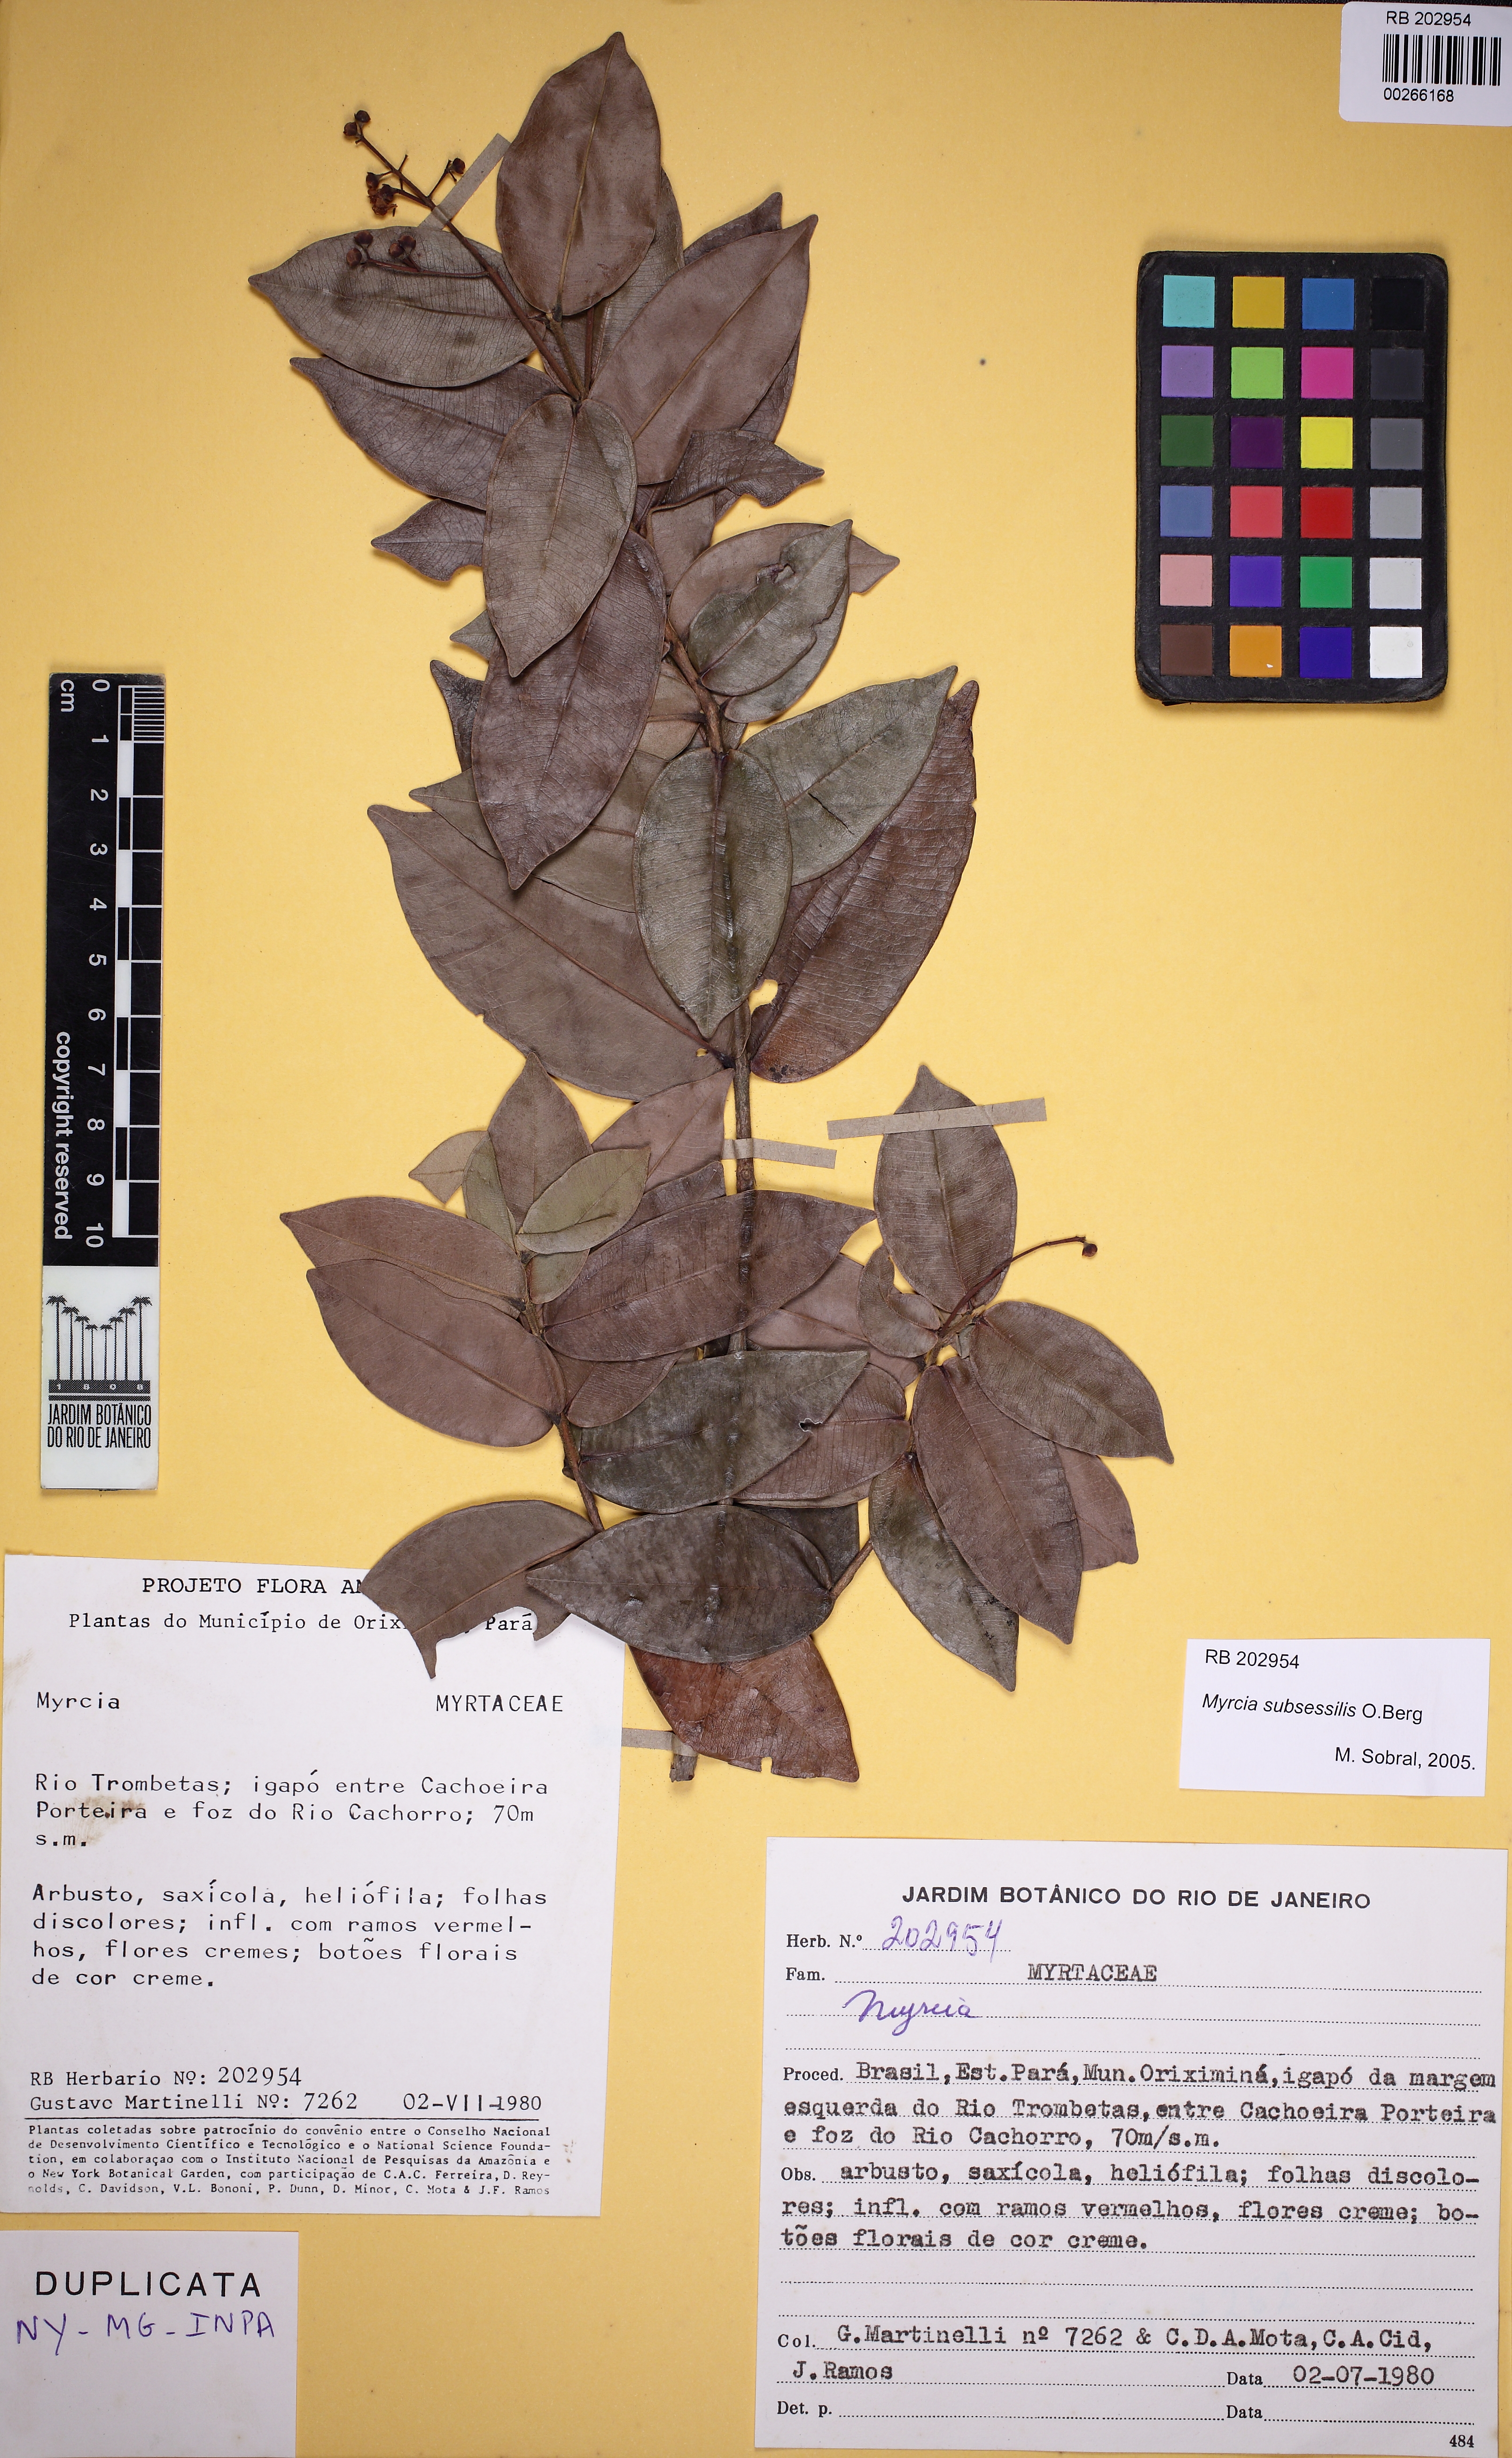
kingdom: Plantae
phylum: Tracheophyta
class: Magnoliopsida
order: Myrtales
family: Myrtaceae
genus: Myrcia
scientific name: Myrcia subsessilis
